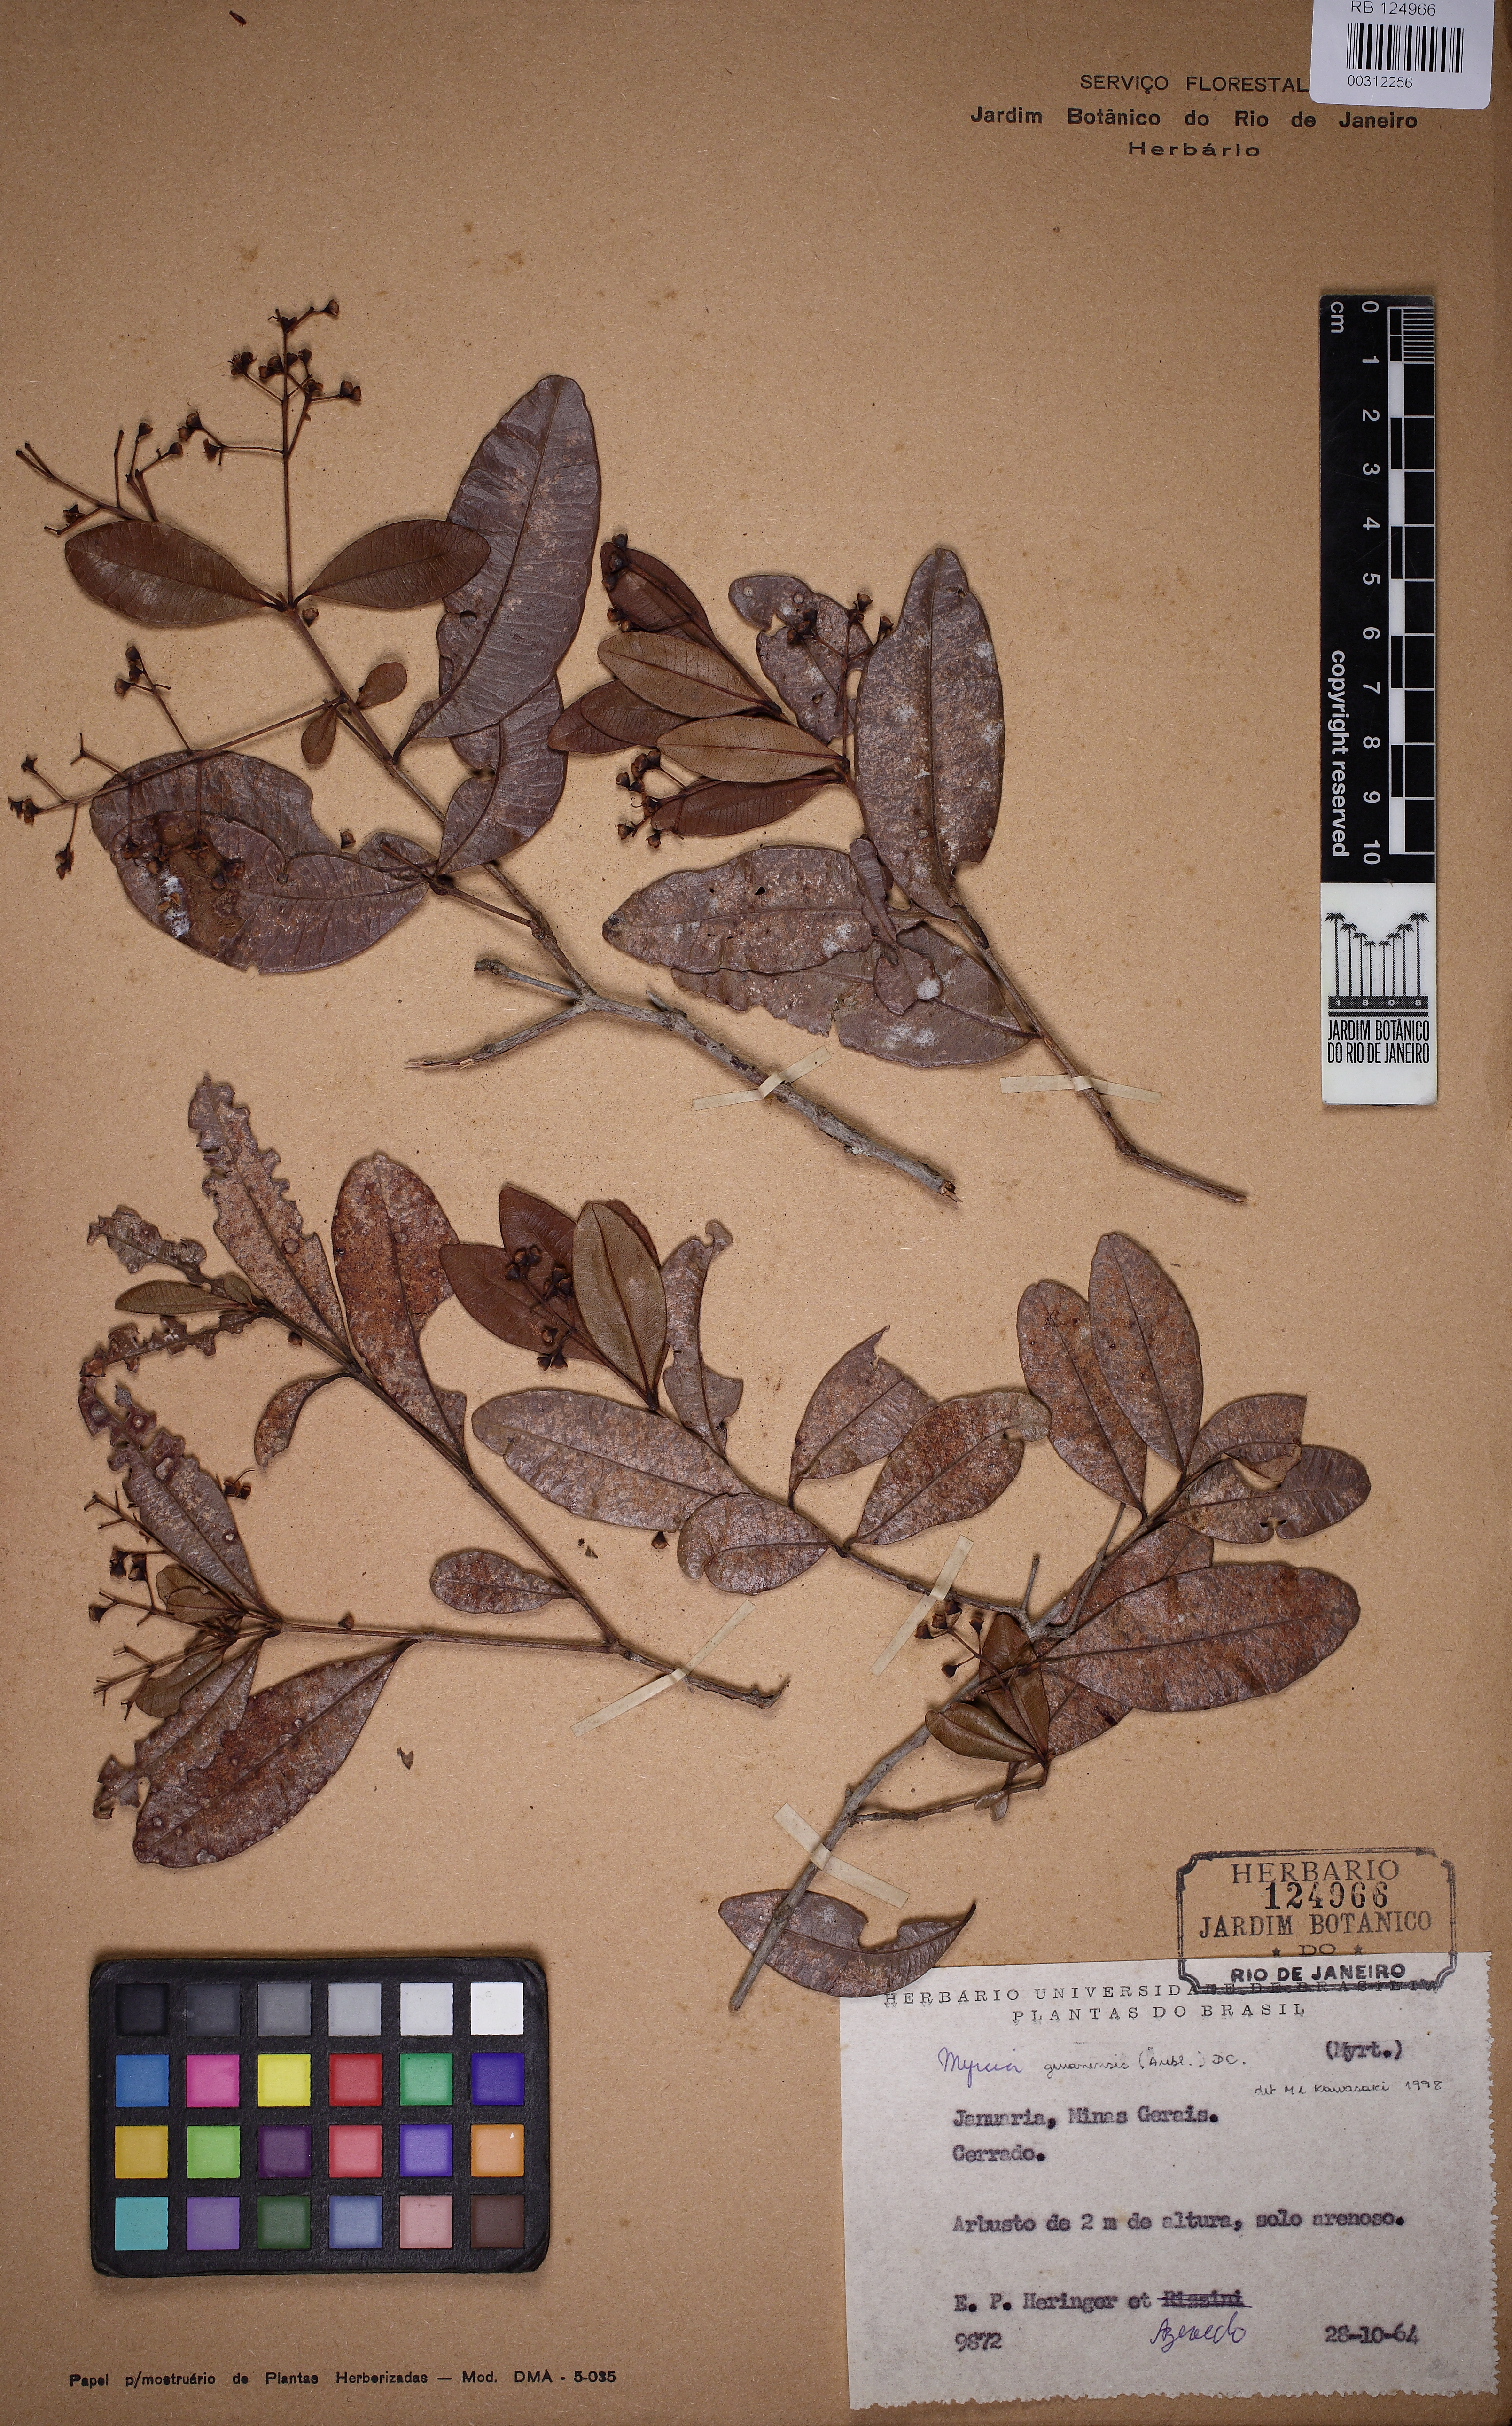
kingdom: Plantae
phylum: Tracheophyta
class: Magnoliopsida
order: Myrtales
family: Myrtaceae
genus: Myrcia
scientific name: Myrcia guianensis
